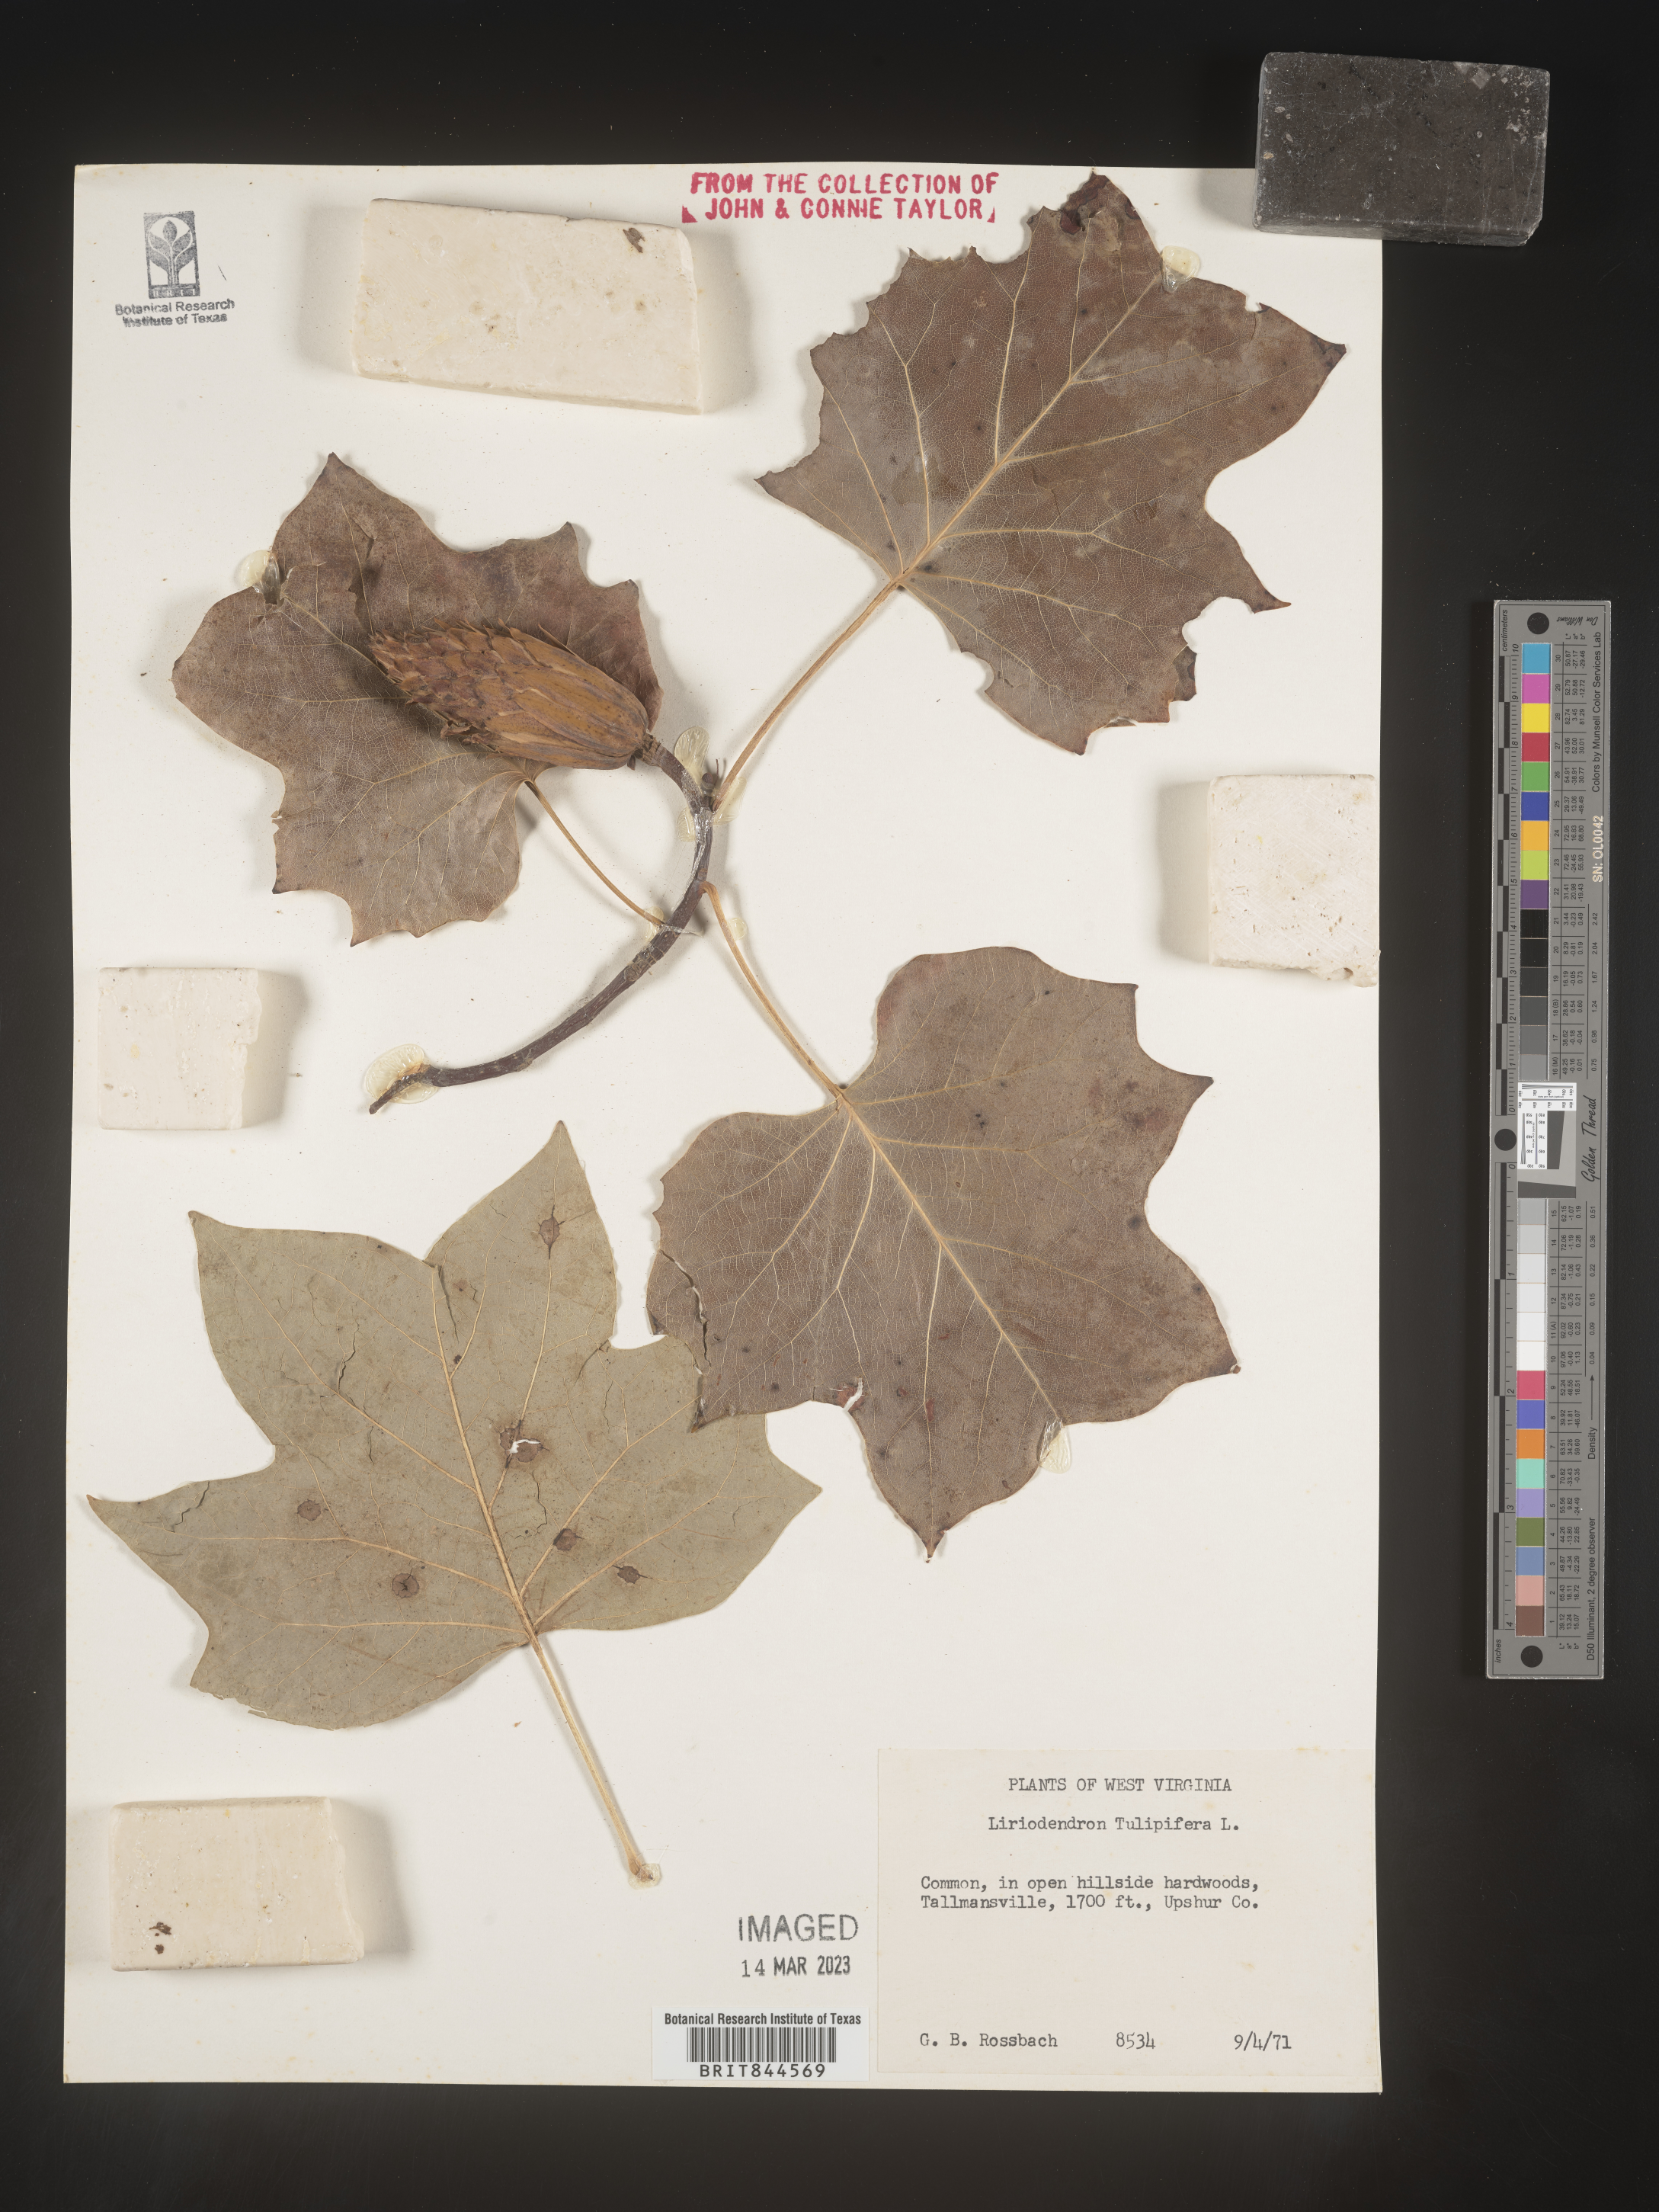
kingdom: Plantae
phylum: Tracheophyta
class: Magnoliopsida
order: Magnoliales
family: Magnoliaceae
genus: Liriodendron
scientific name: Liriodendron tulipifera
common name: Tulip tree
